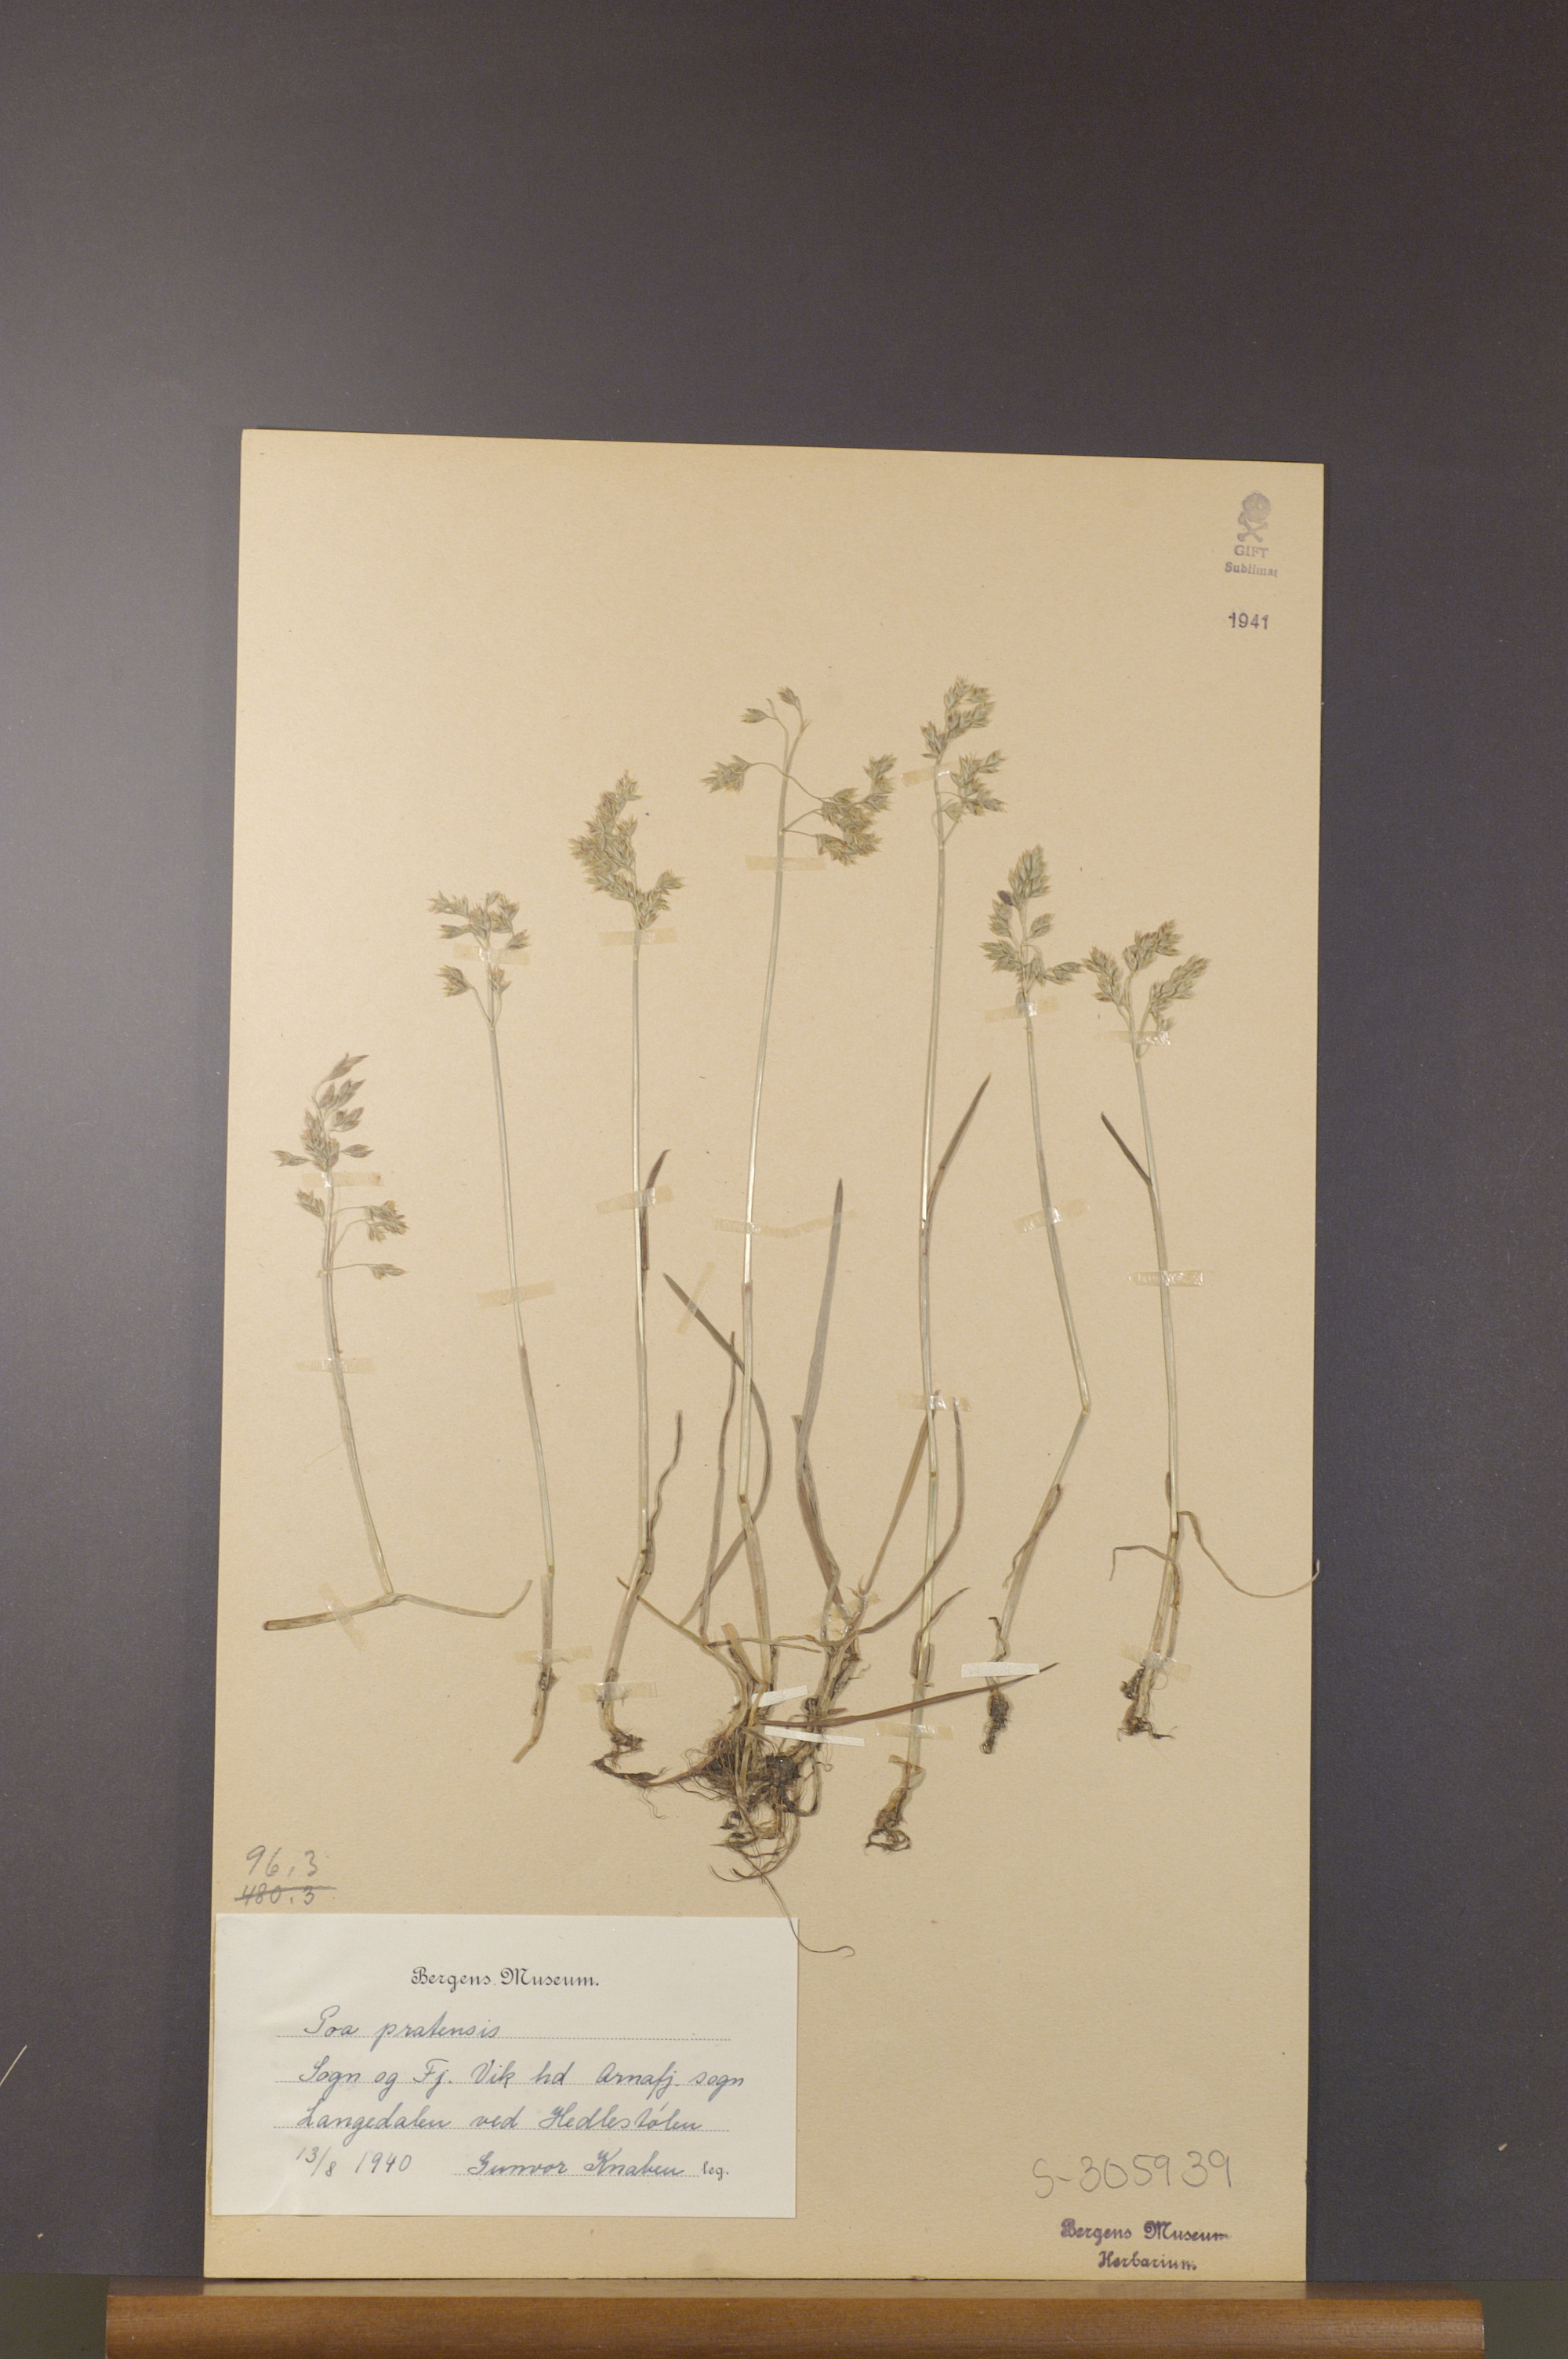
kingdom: Plantae
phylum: Tracheophyta
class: Liliopsida
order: Poales
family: Poaceae
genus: Poa
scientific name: Poa pratensis
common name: Kentucky bluegrass
